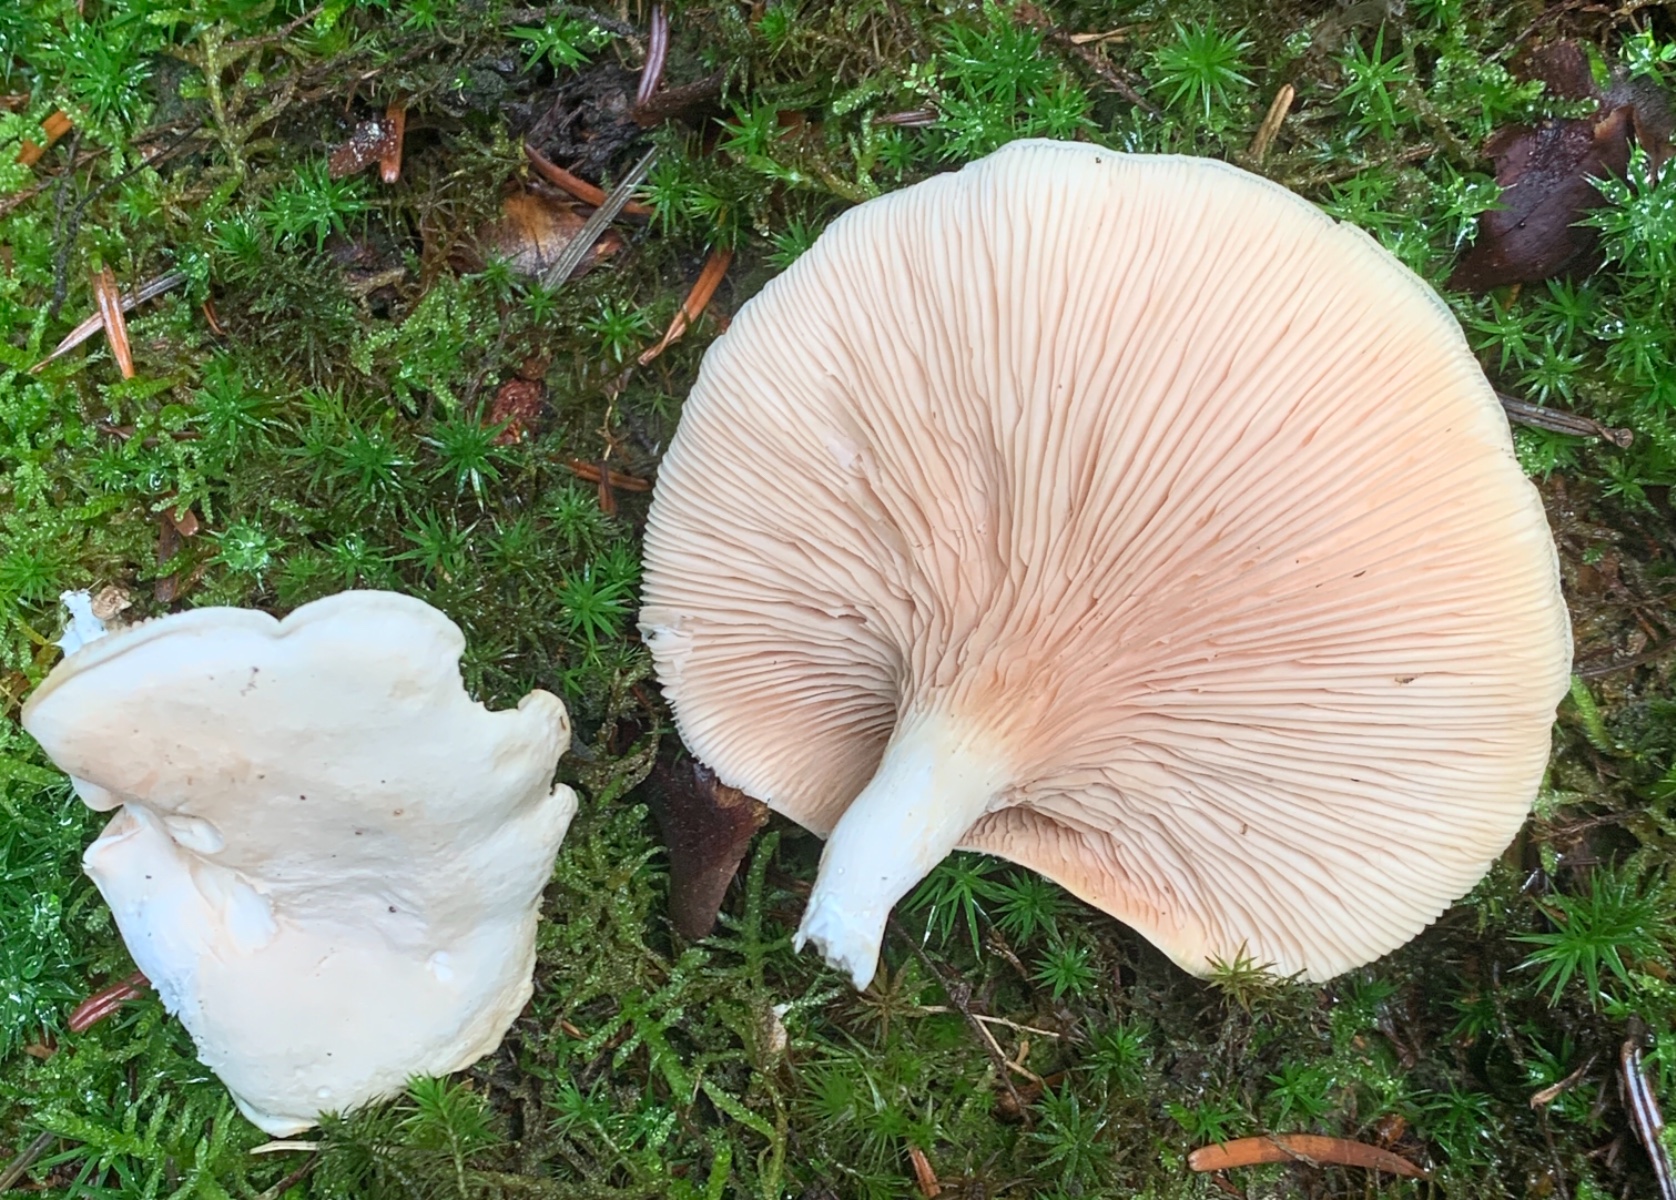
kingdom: Fungi
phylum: Basidiomycota
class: Agaricomycetes
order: Agaricales
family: Entolomataceae
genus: Clitopilus
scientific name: Clitopilus prunulus
